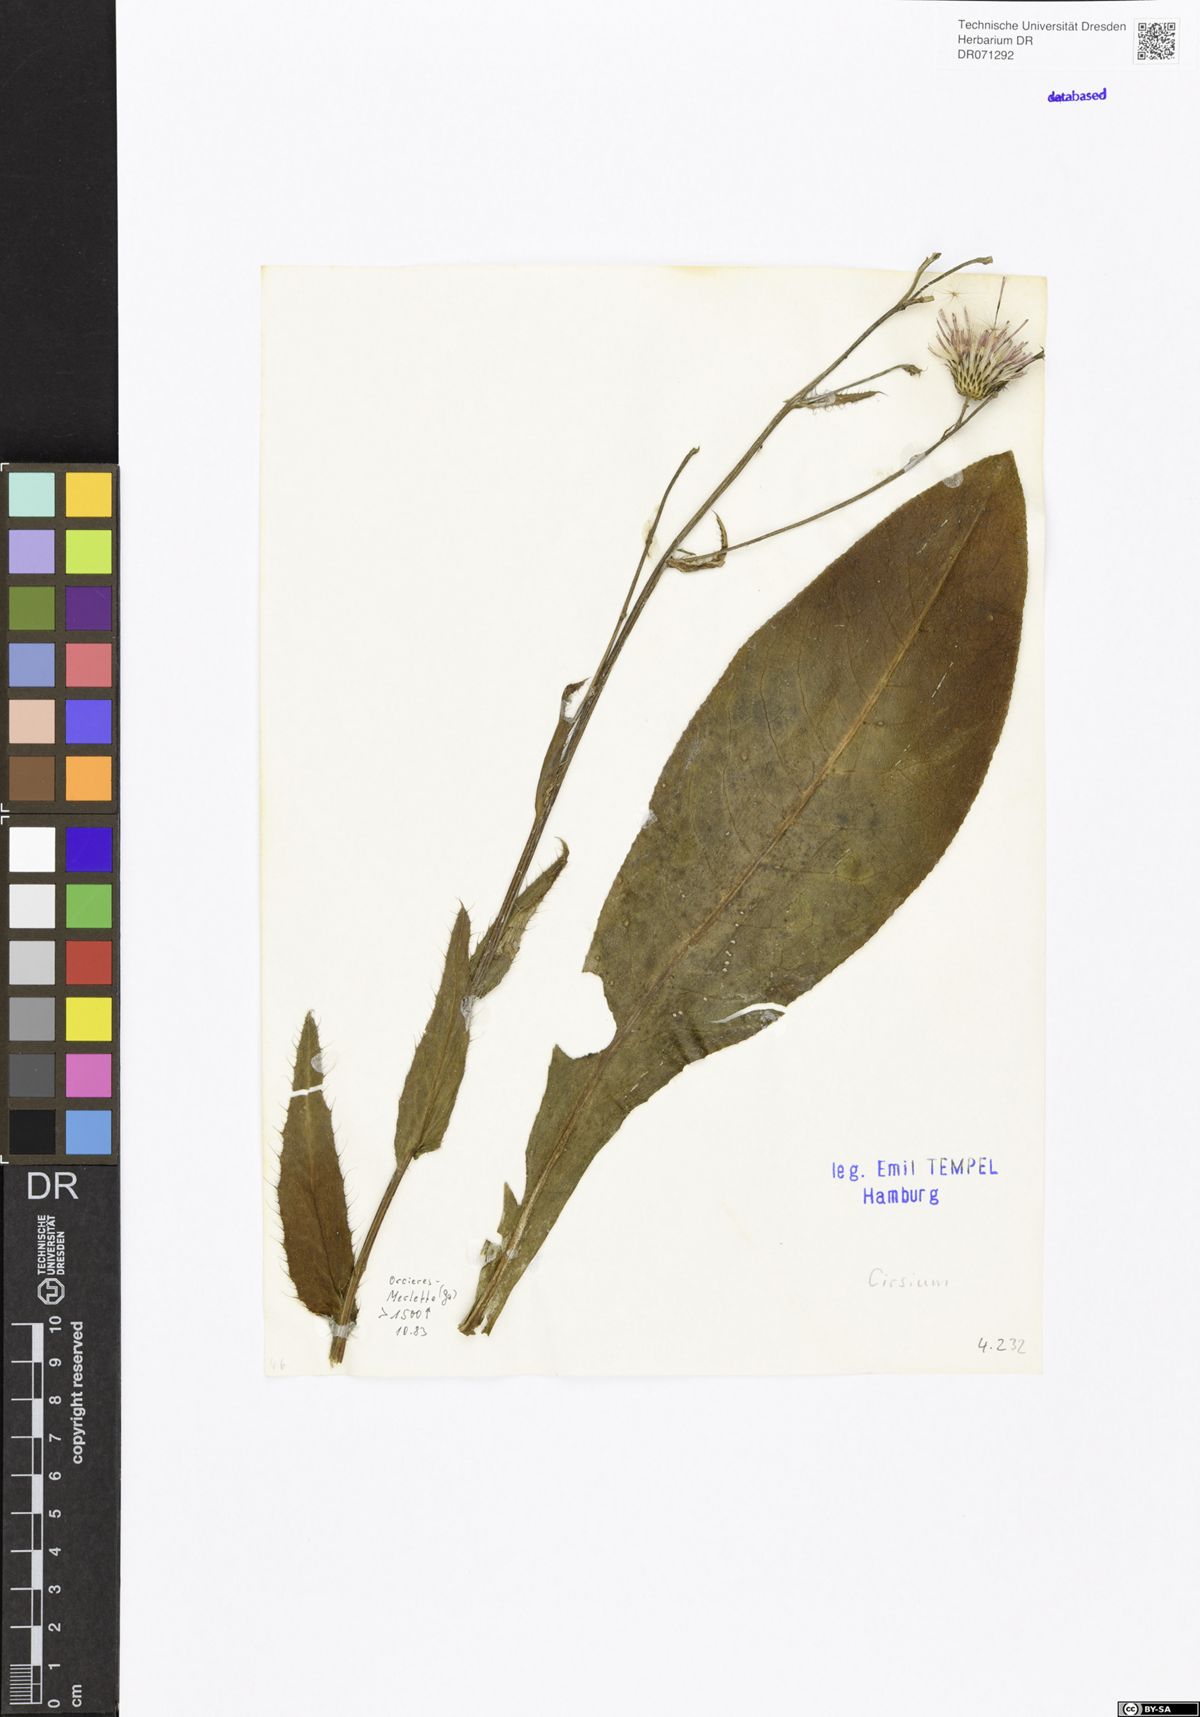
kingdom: Plantae
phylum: Tracheophyta
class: Magnoliopsida
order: Asterales
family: Asteraceae
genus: Cirsium
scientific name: Cirsium
